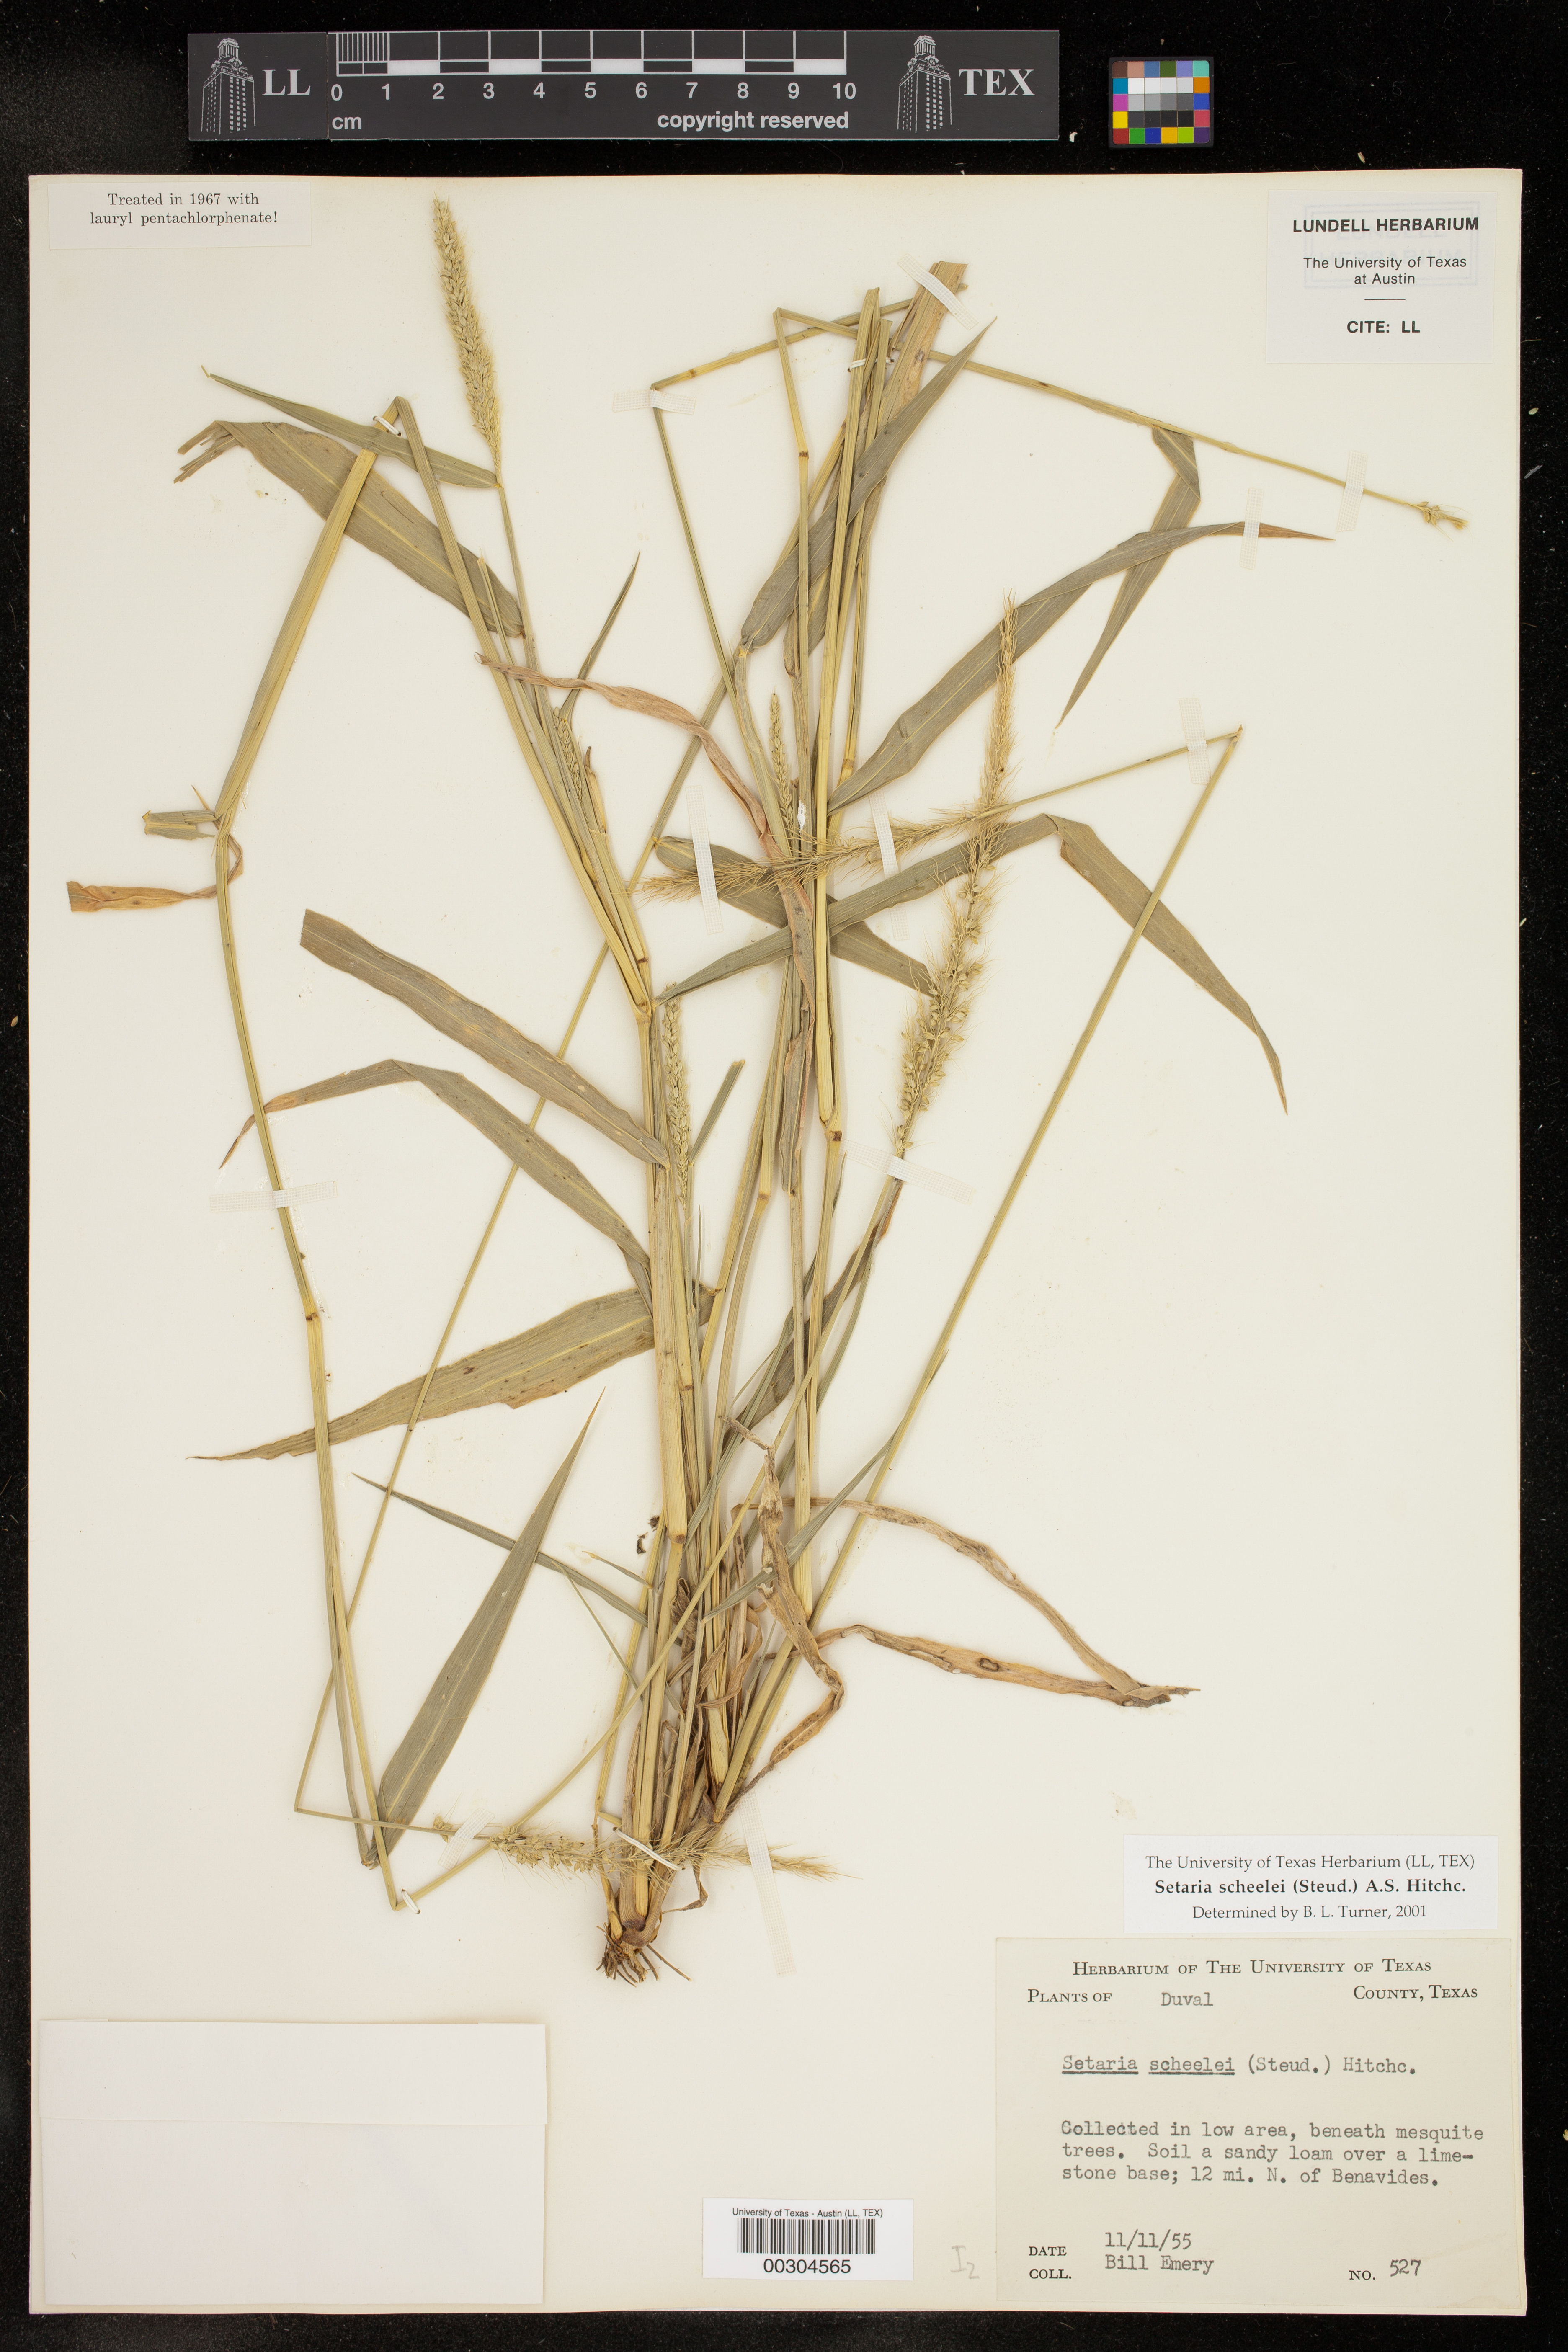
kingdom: Plantae
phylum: Tracheophyta
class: Liliopsida
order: Poales
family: Poaceae
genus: Setaria
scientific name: Setaria scheelei
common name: Southwestern bristle grass
